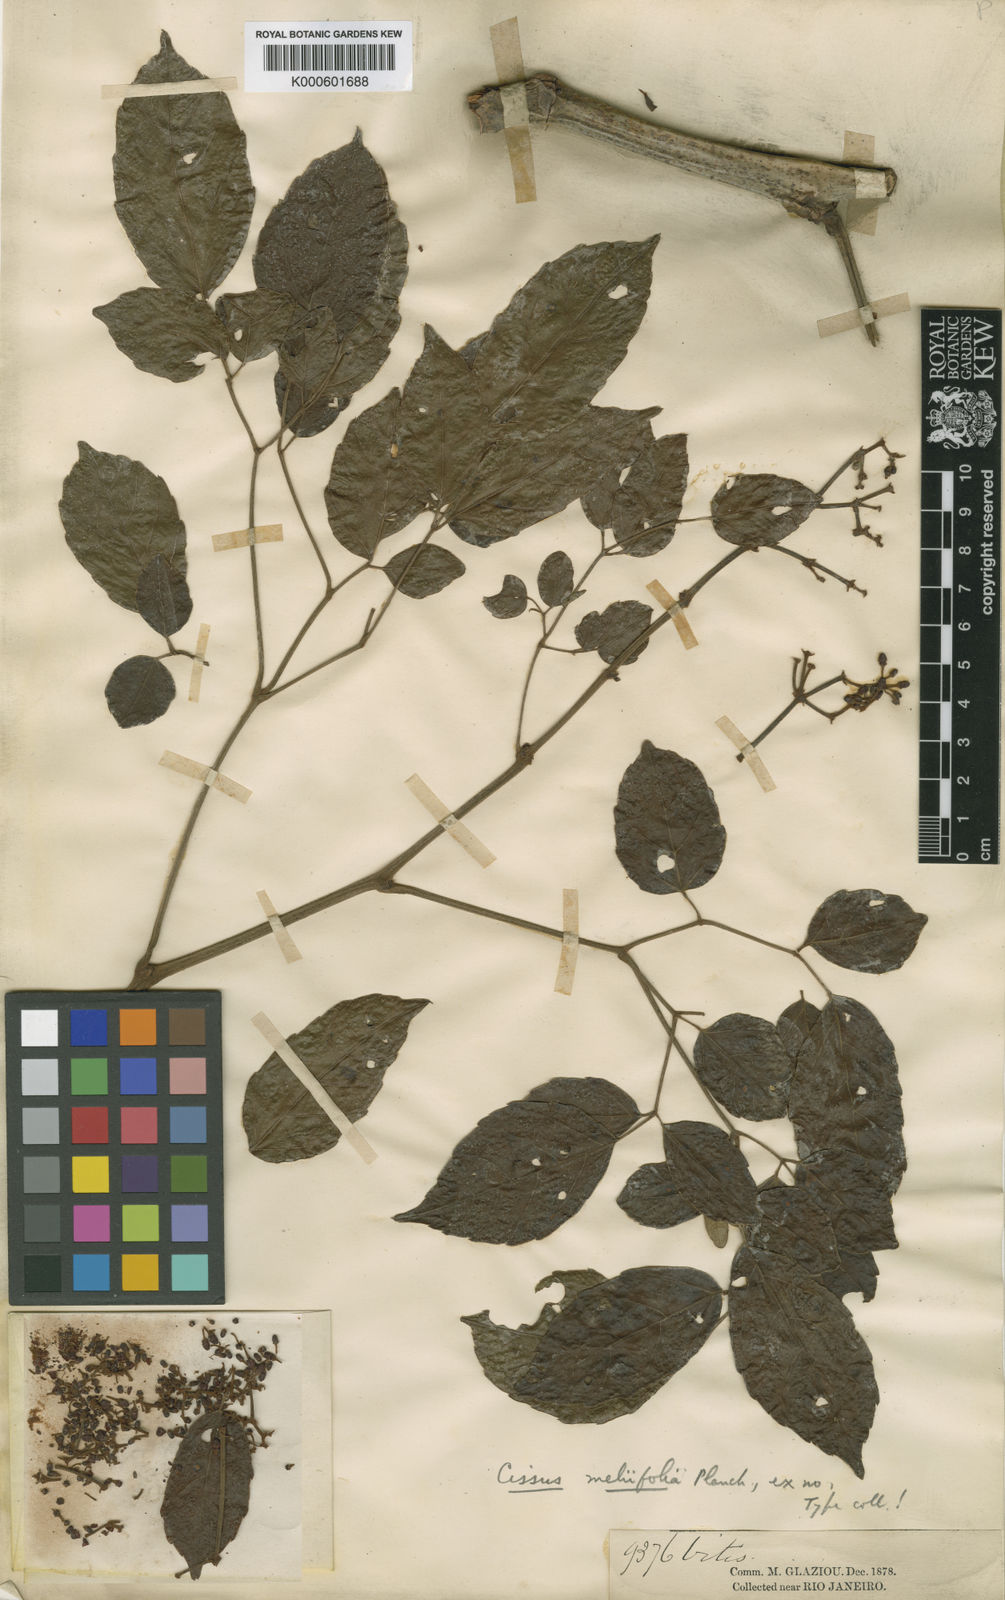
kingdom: Plantae
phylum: Tracheophyta
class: Magnoliopsida
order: Vitales
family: Vitaceae
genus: Cissus
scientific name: Cissus paullinifolia
